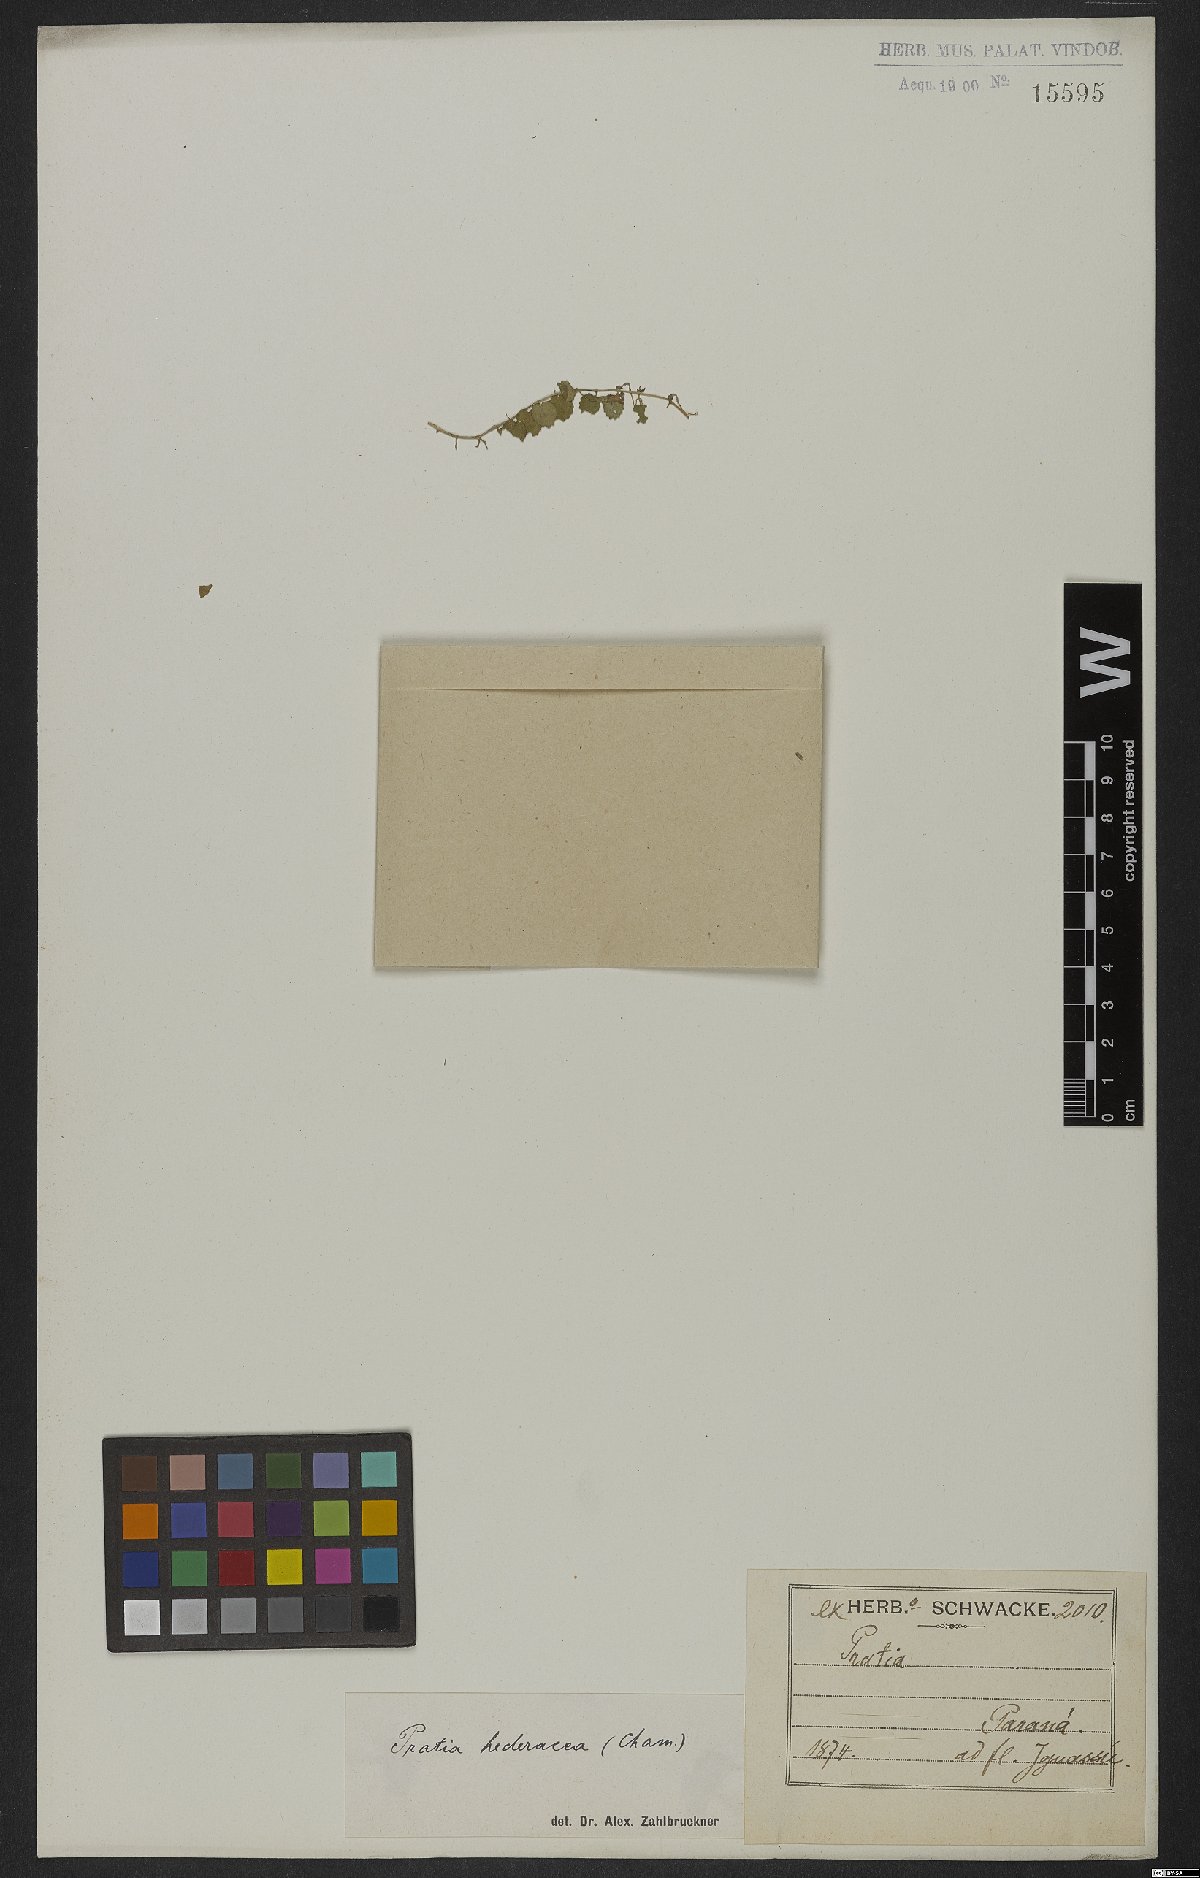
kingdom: Plantae
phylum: Tracheophyta
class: Magnoliopsida
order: Asterales
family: Campanulaceae
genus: Lobelia
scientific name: Lobelia hederacea
